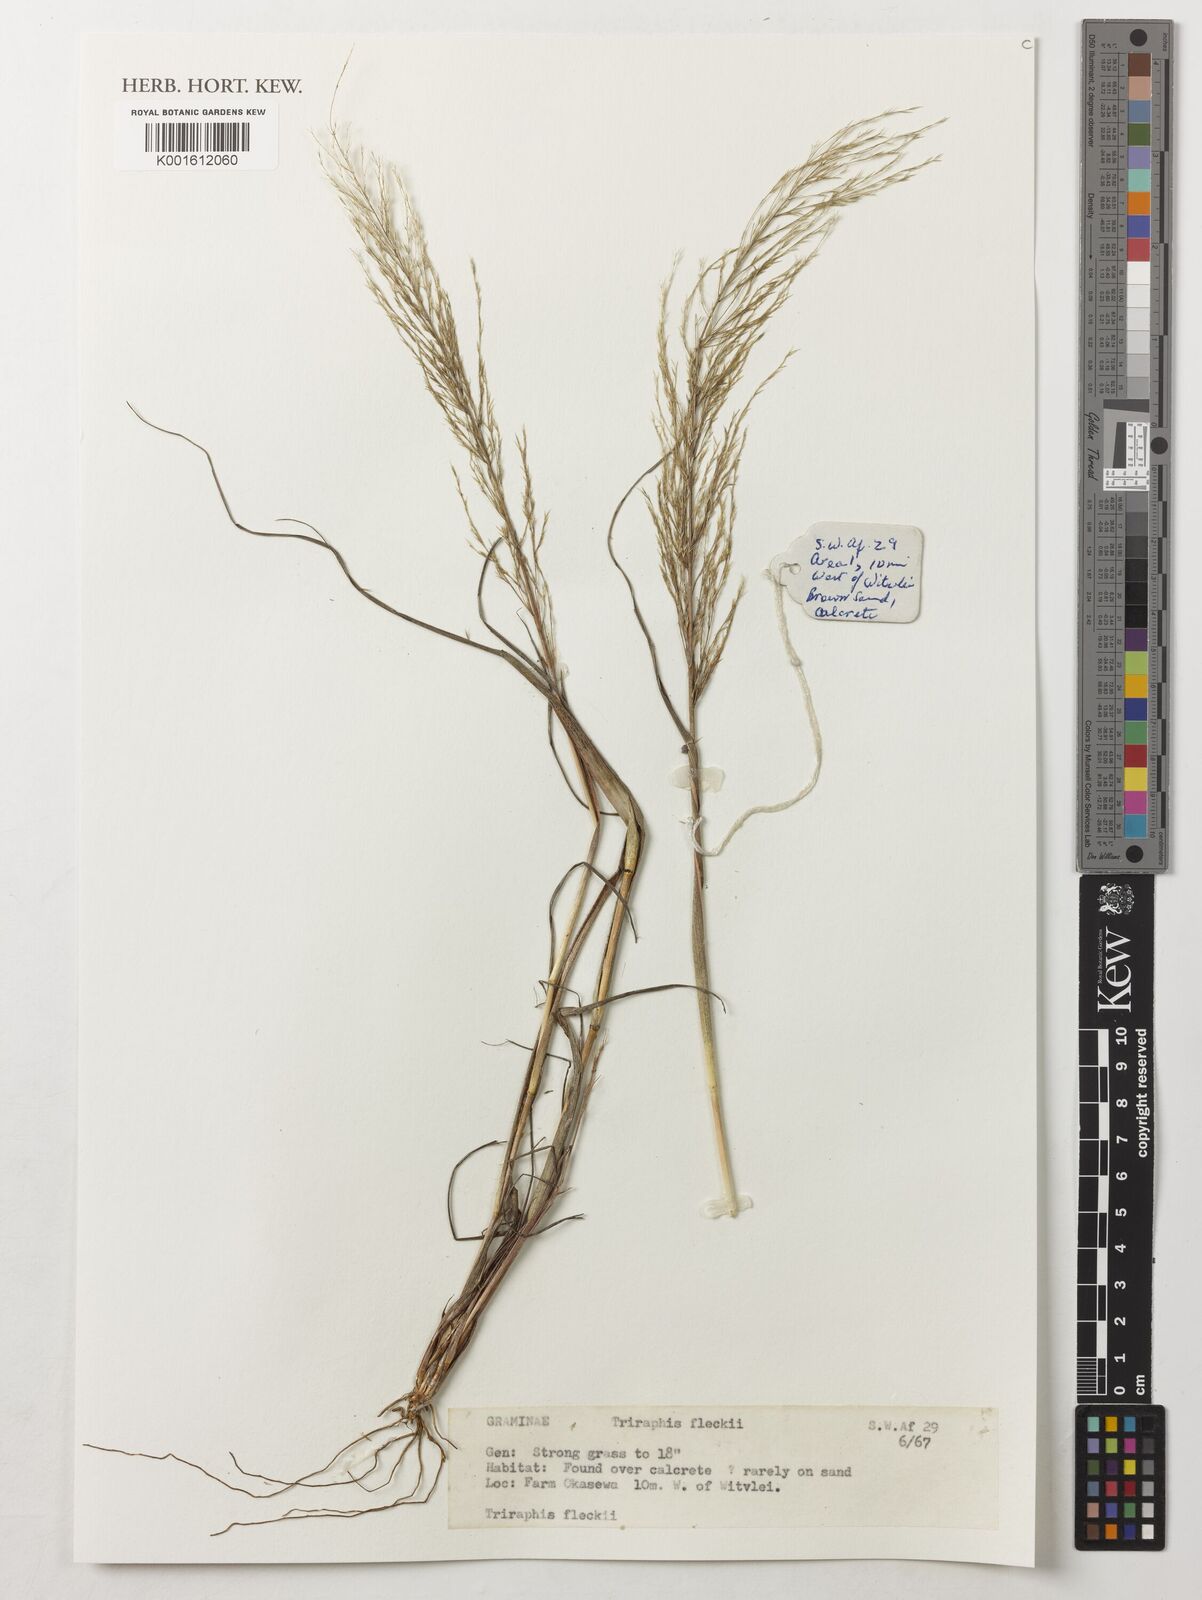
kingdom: Plantae
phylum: Tracheophyta
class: Liliopsida
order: Poales
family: Poaceae
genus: Triraphis
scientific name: Triraphis purpurea
